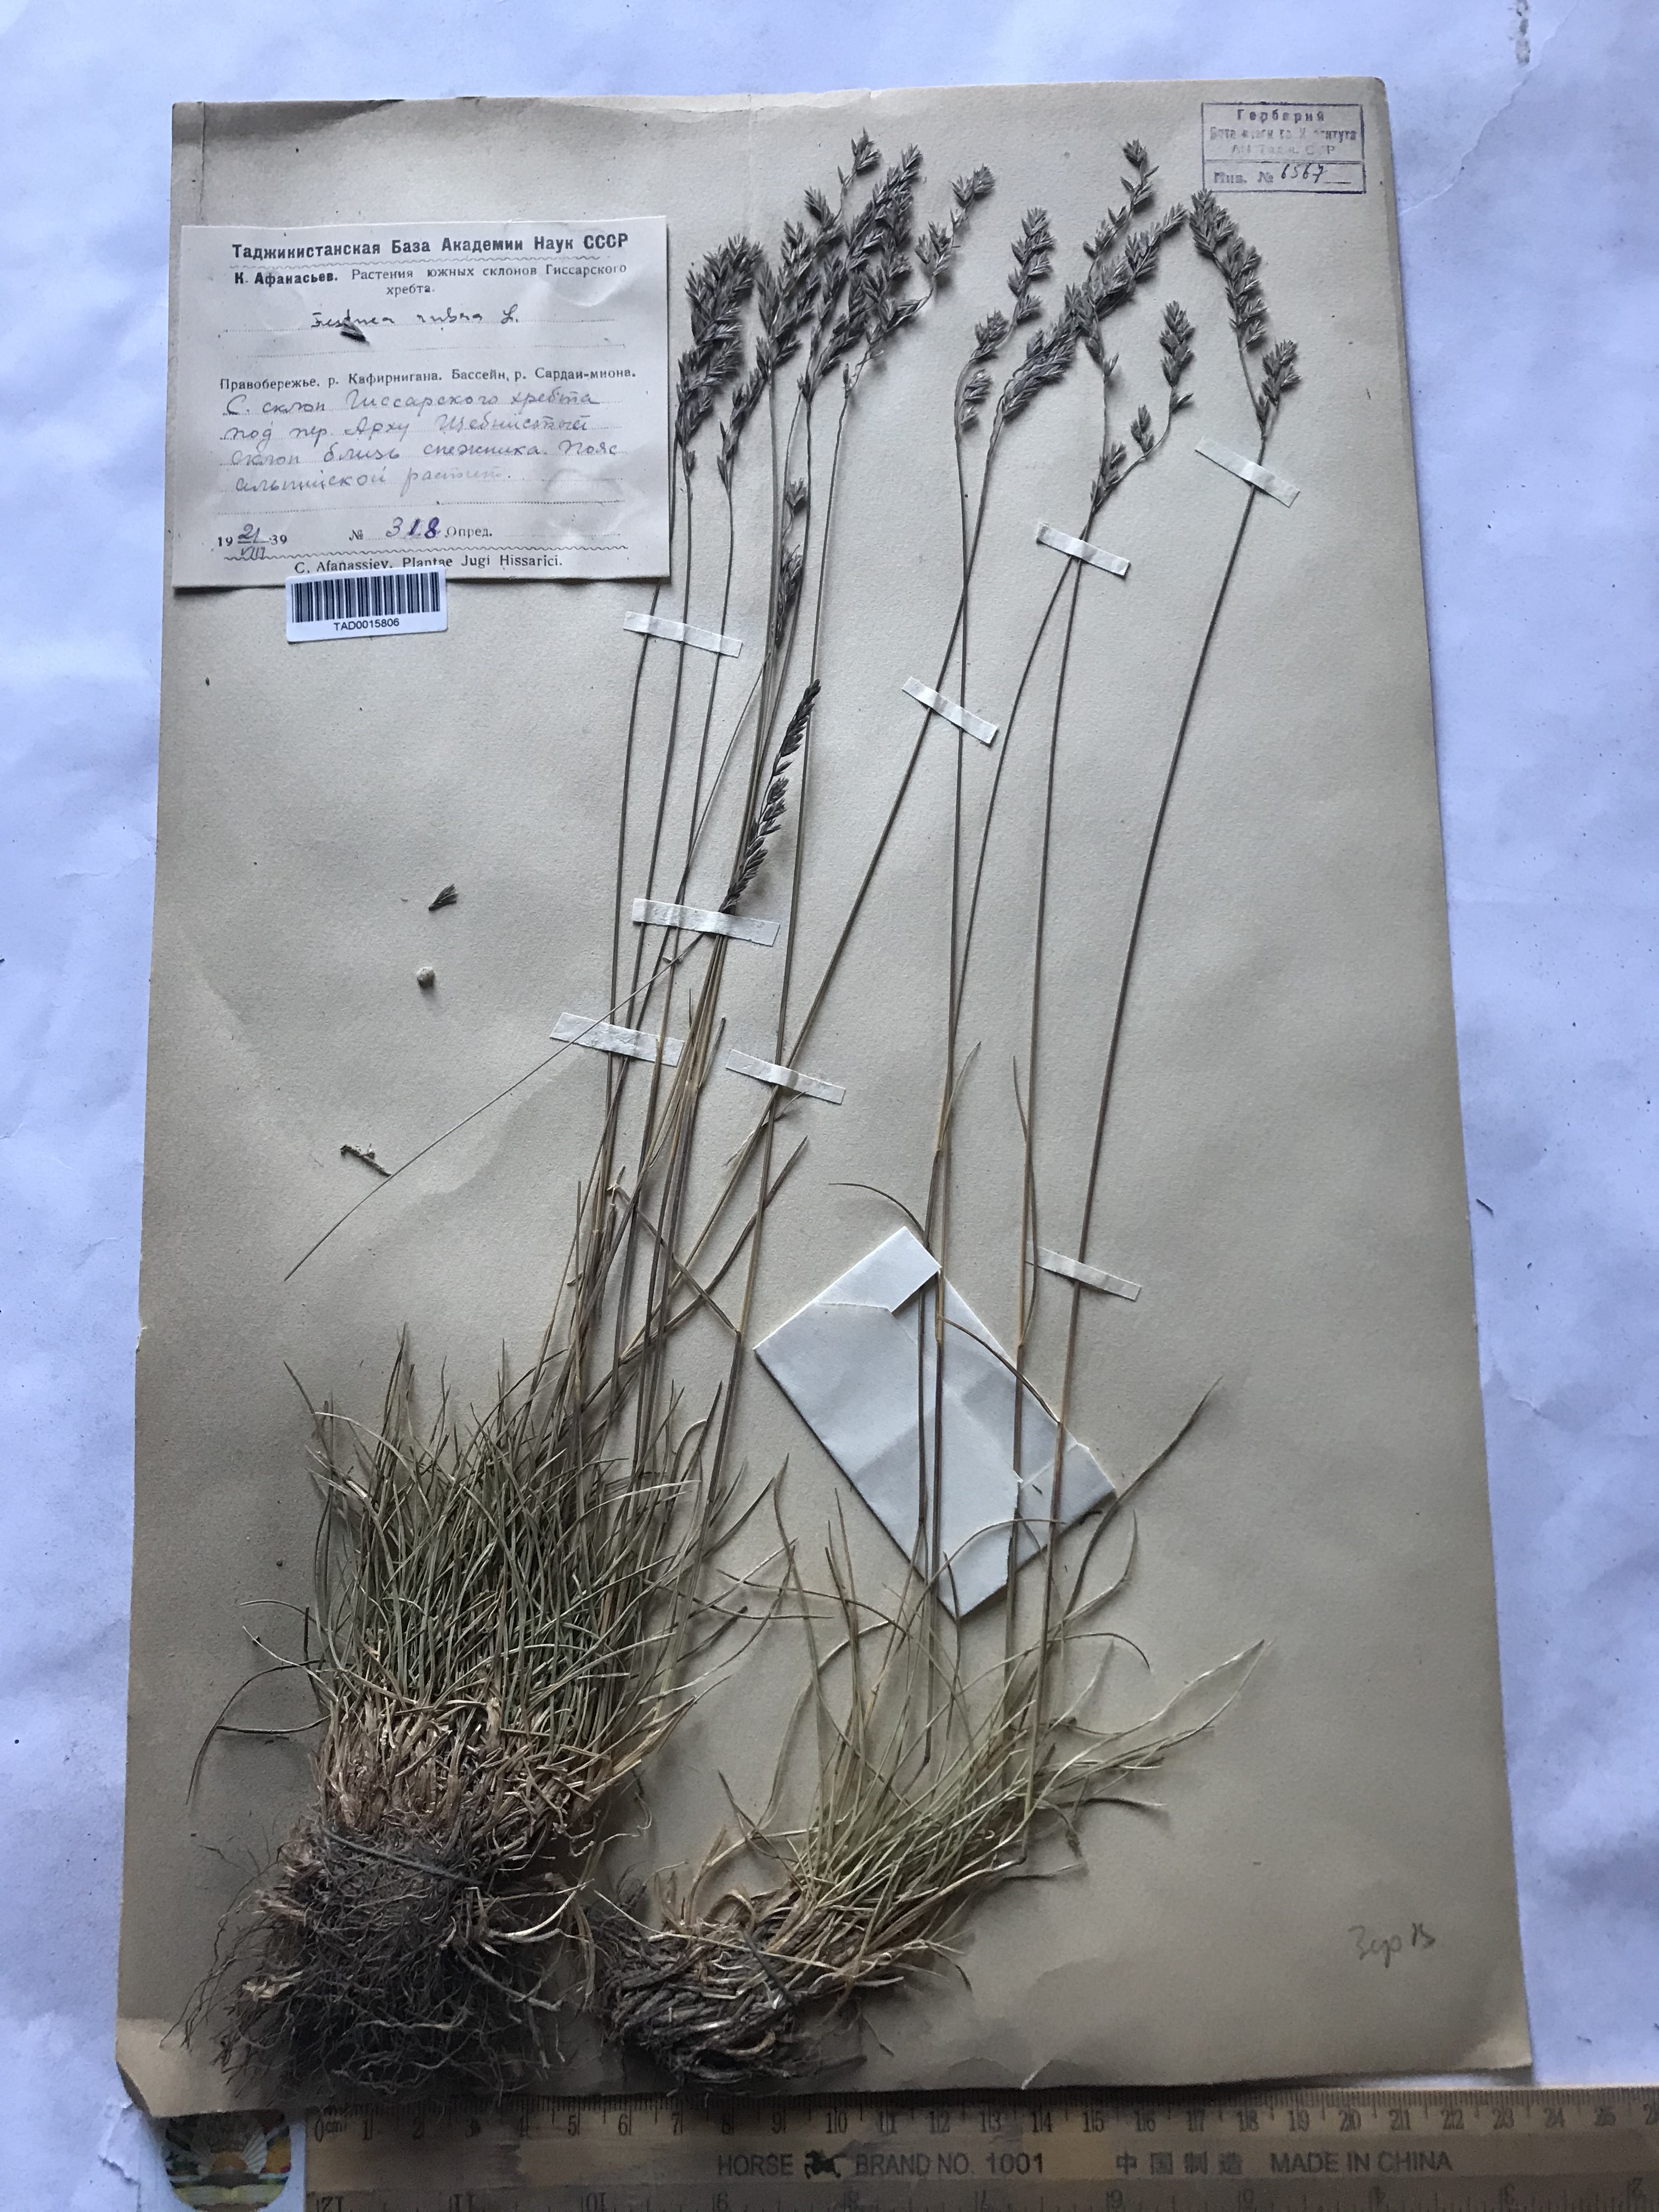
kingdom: Plantae
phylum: Tracheophyta
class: Liliopsida
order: Poales
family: Poaceae
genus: Festuca
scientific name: Festuca rubra
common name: Red fescue
